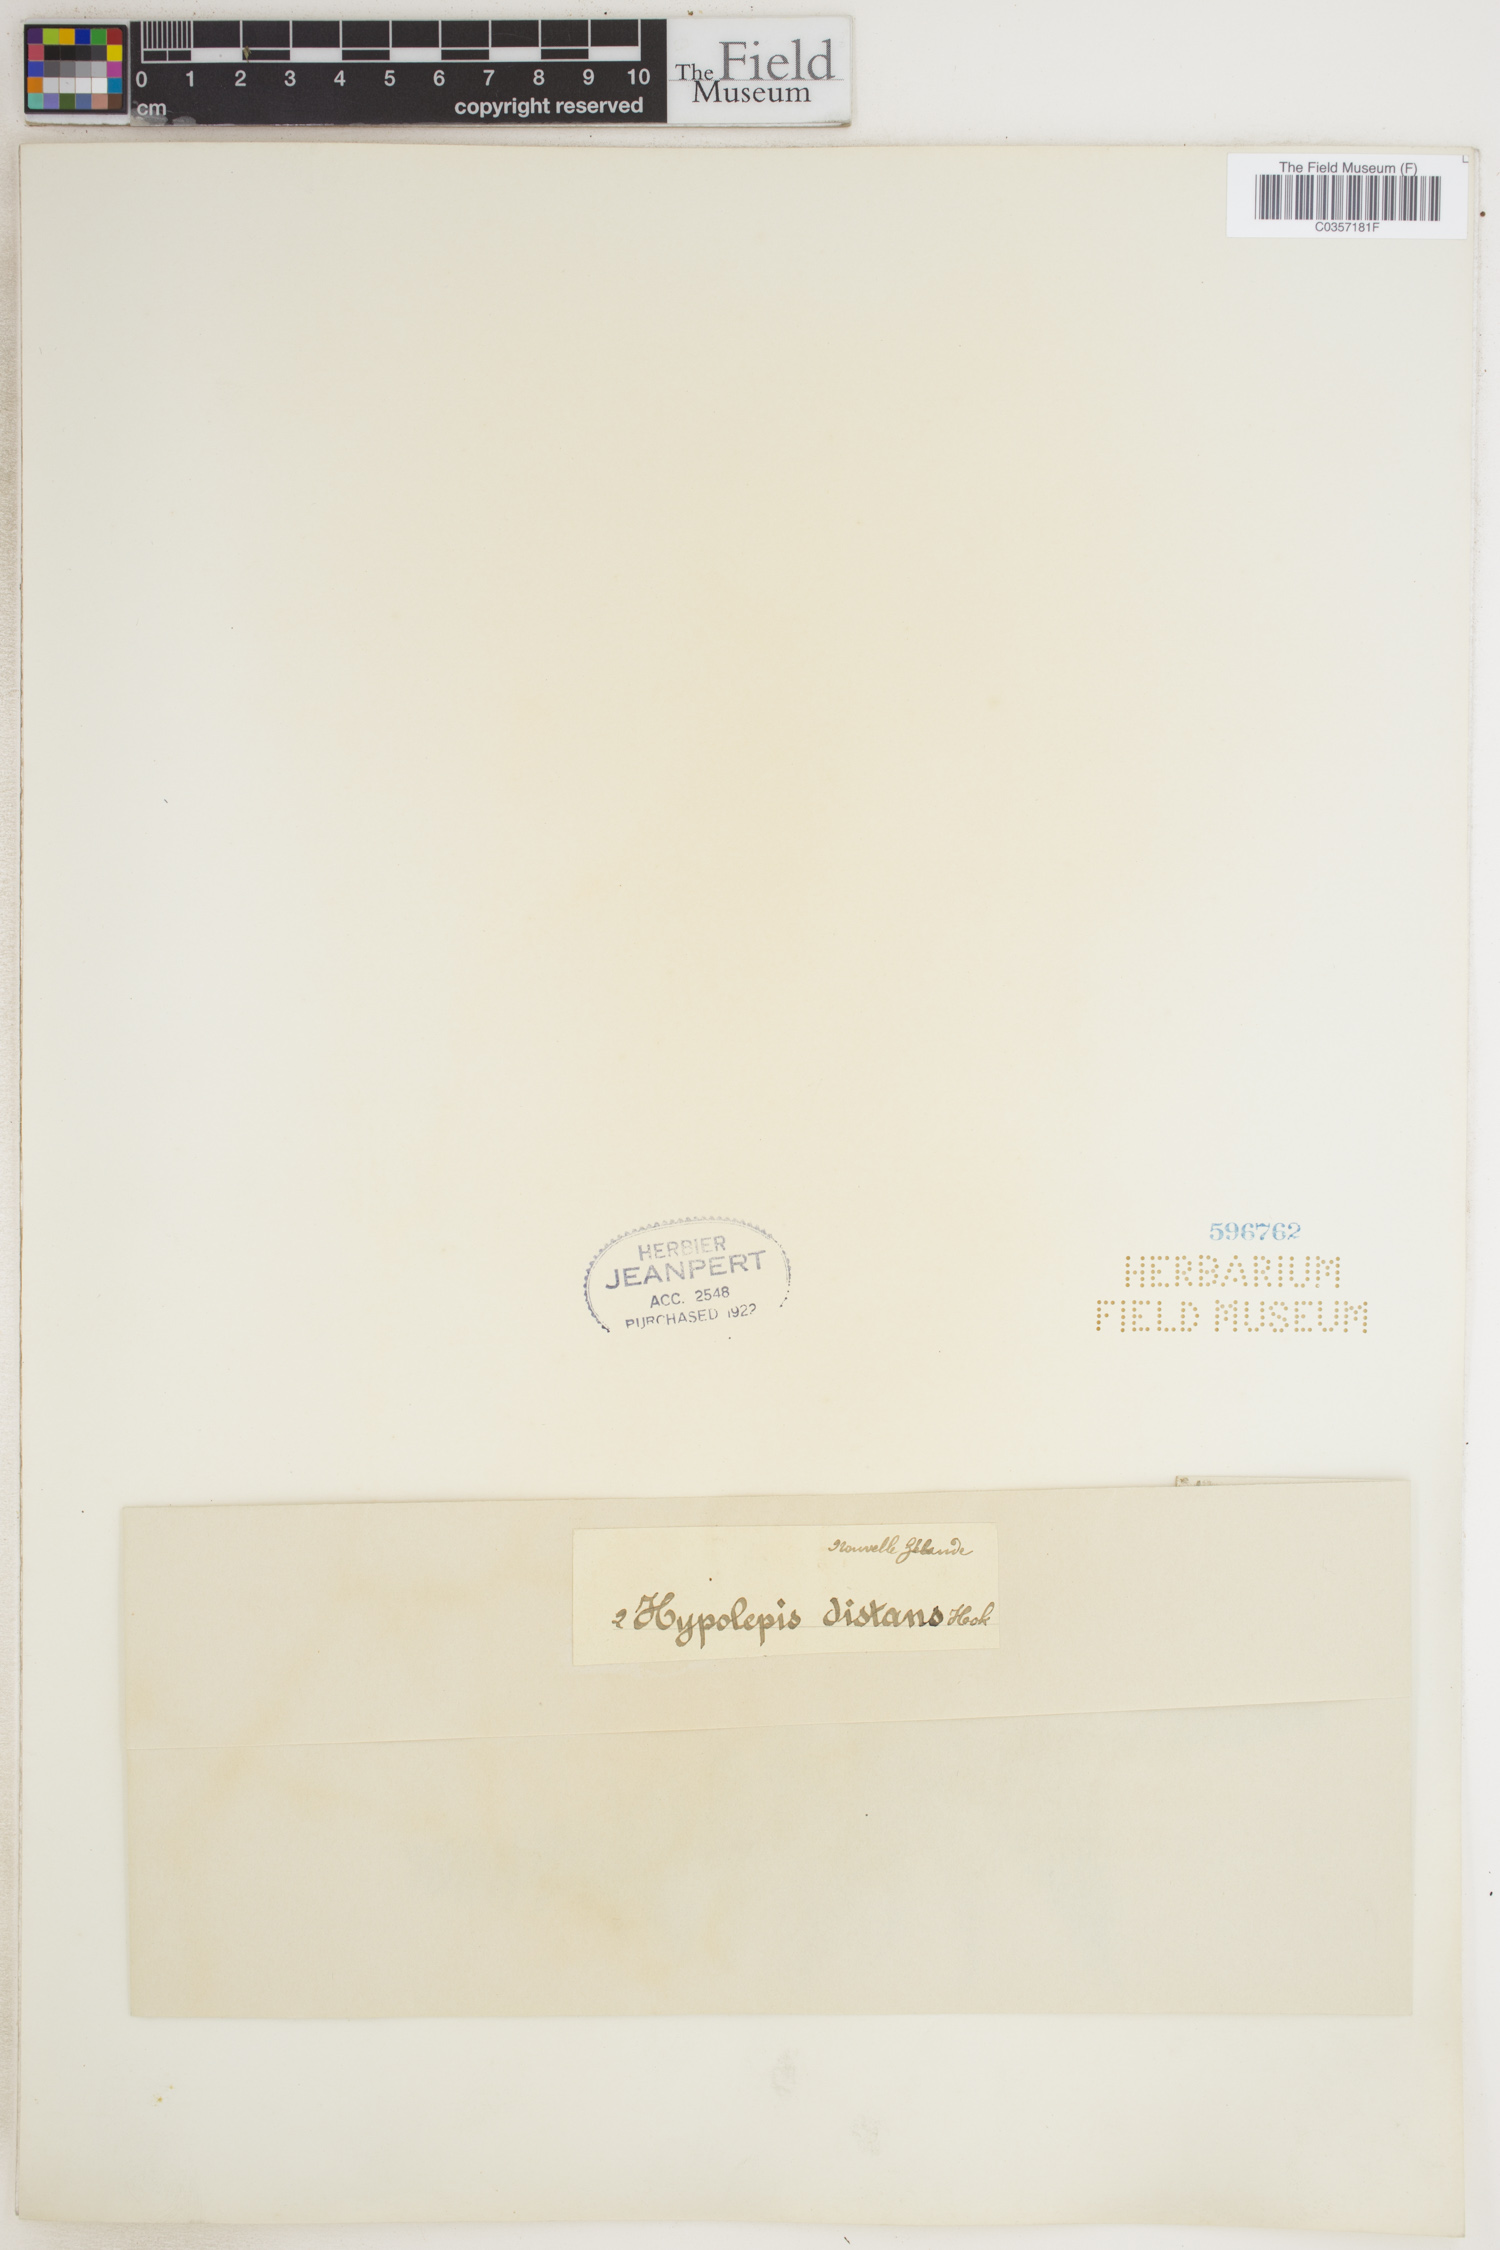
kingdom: Plantae
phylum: Tracheophyta
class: Polypodiopsida
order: Polypodiales
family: Dennstaedtiaceae
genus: Hiya
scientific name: Hiya distans
